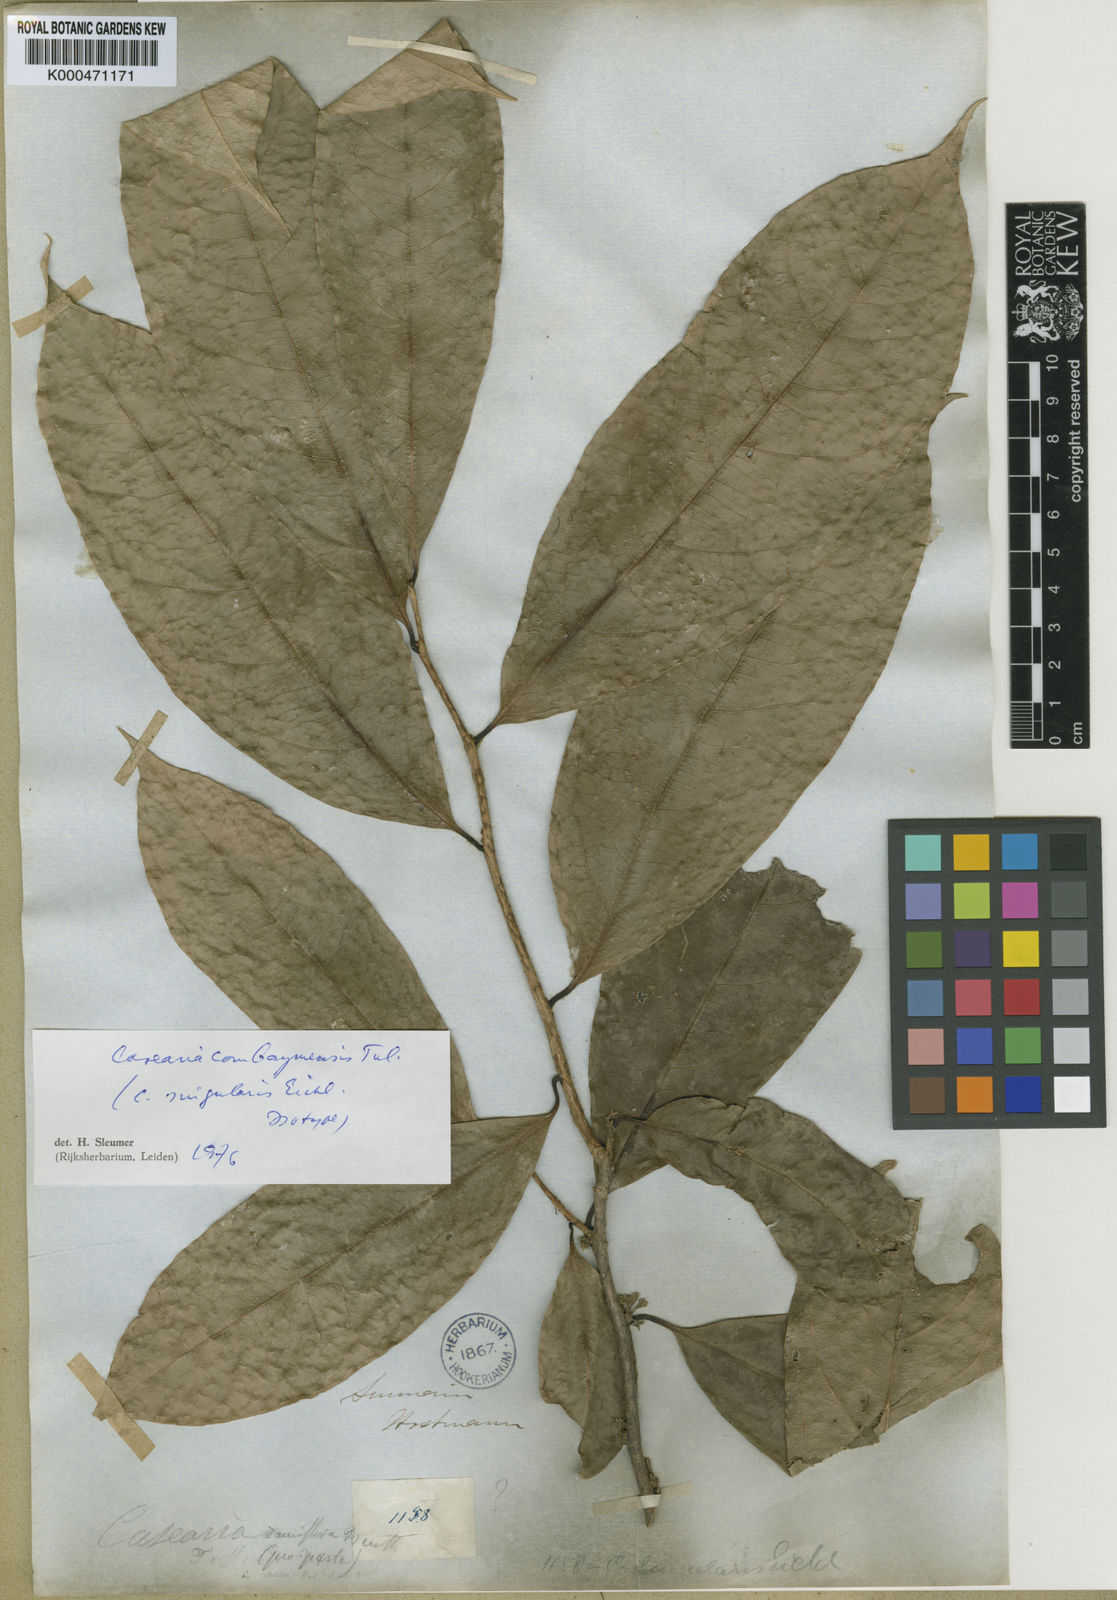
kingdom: Plantae
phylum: Tracheophyta
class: Magnoliopsida
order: Malpighiales
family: Salicaceae
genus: Casearia
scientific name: Casearia combaymensis
